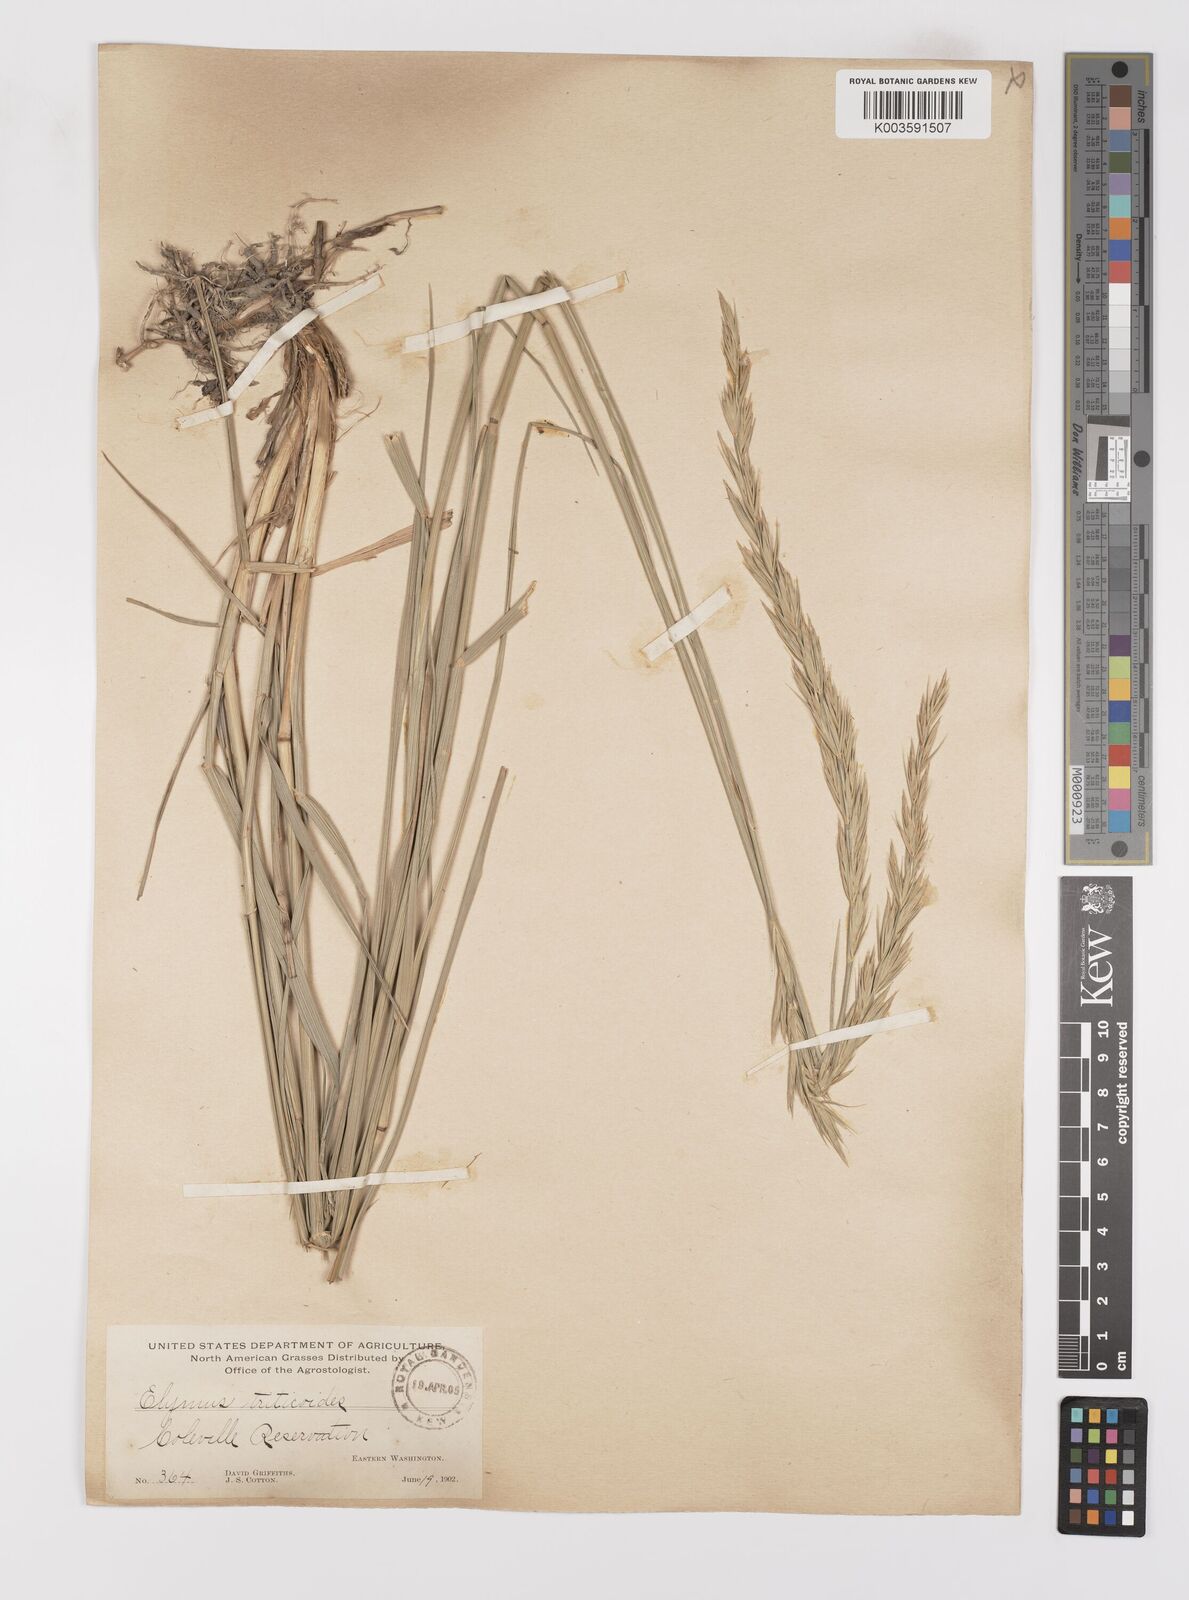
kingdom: Plantae
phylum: Tracheophyta
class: Liliopsida
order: Poales
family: Poaceae
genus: Leymus
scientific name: Leymus triticoides
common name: Beardless wild rye
